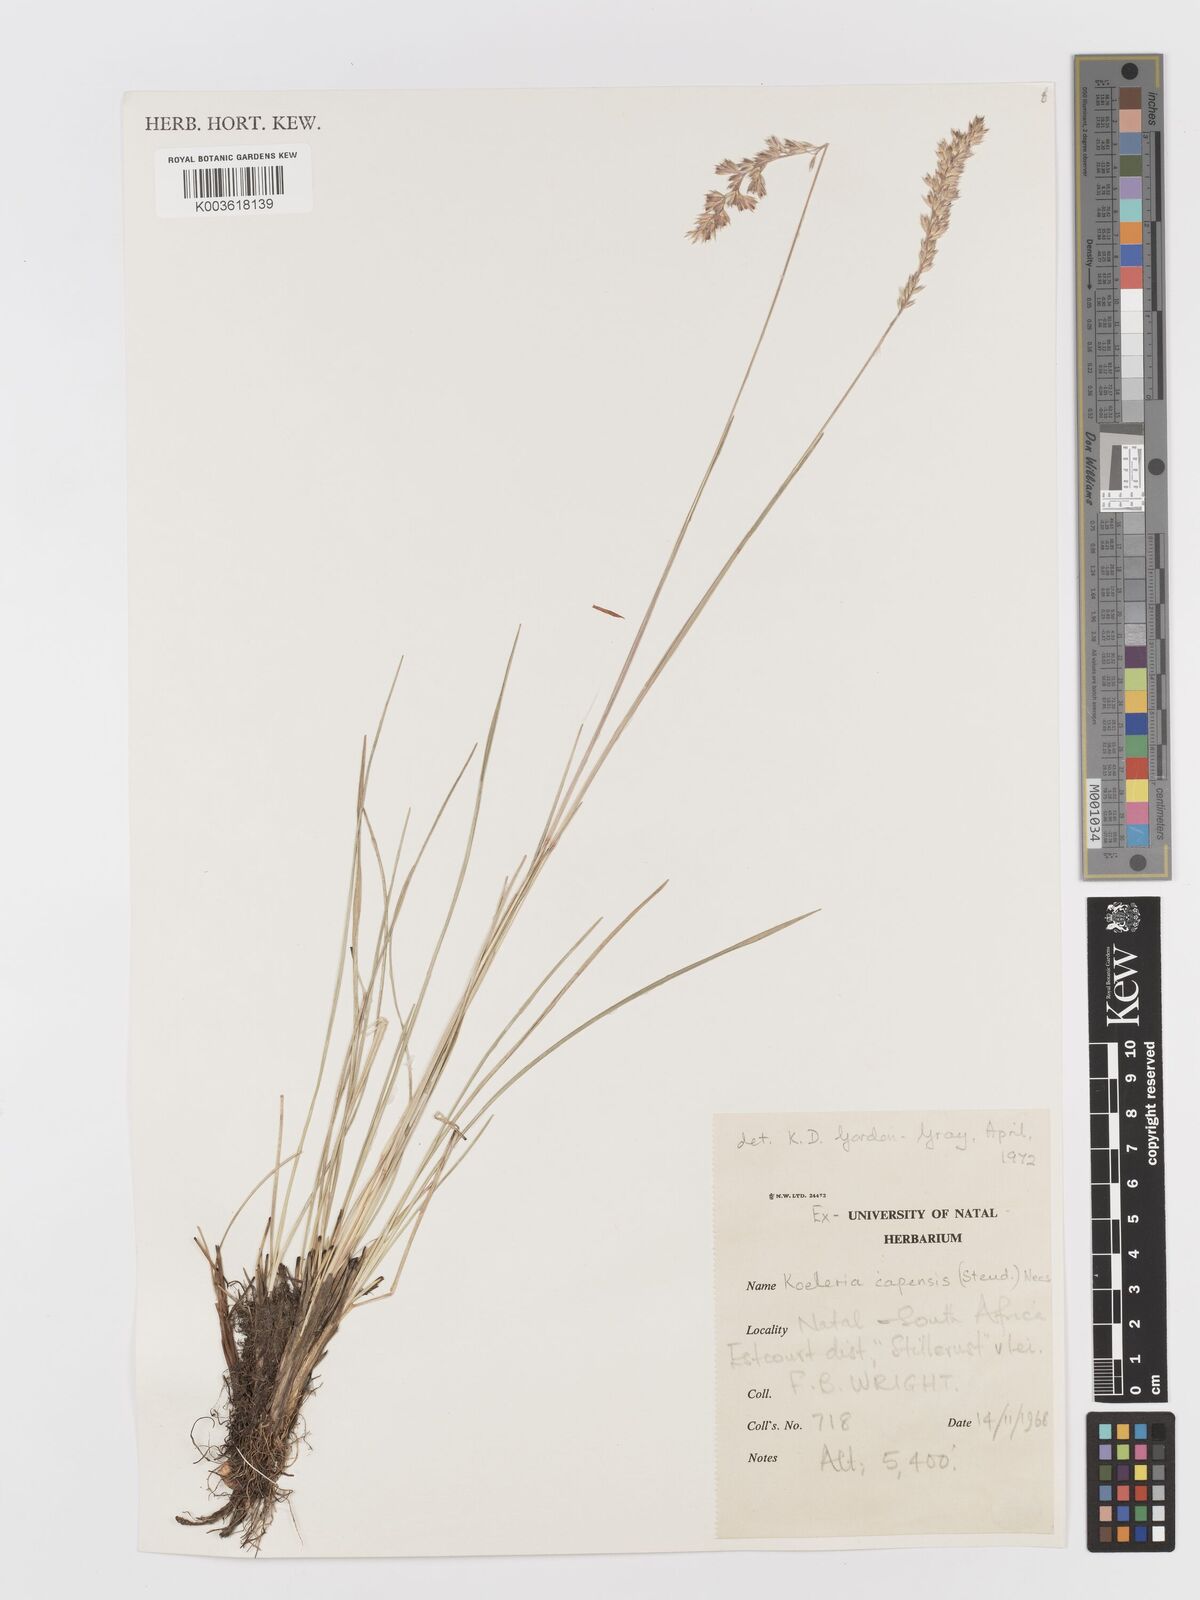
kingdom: Plantae
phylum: Tracheophyta
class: Liliopsida
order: Poales
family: Poaceae
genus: Koeleria
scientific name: Koeleria capensis
